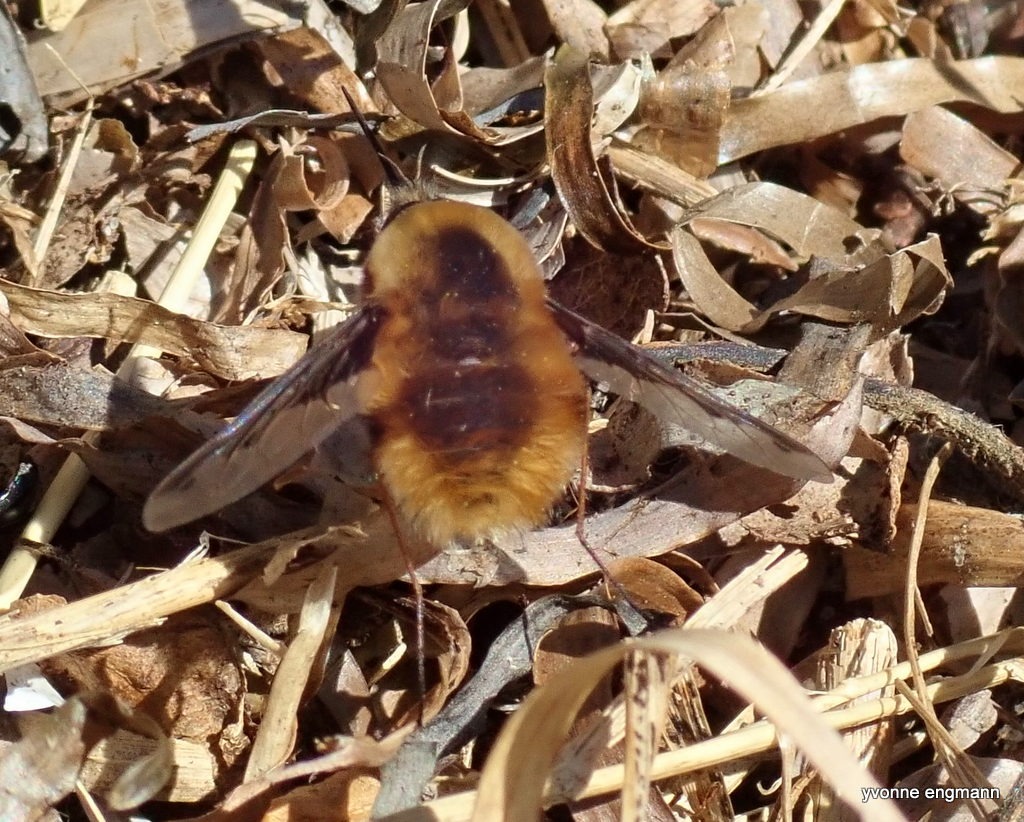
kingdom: Animalia
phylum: Arthropoda
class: Insecta
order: Diptera
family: Bombyliidae
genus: Bombylius
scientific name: Bombylius major
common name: Stor humleflue
